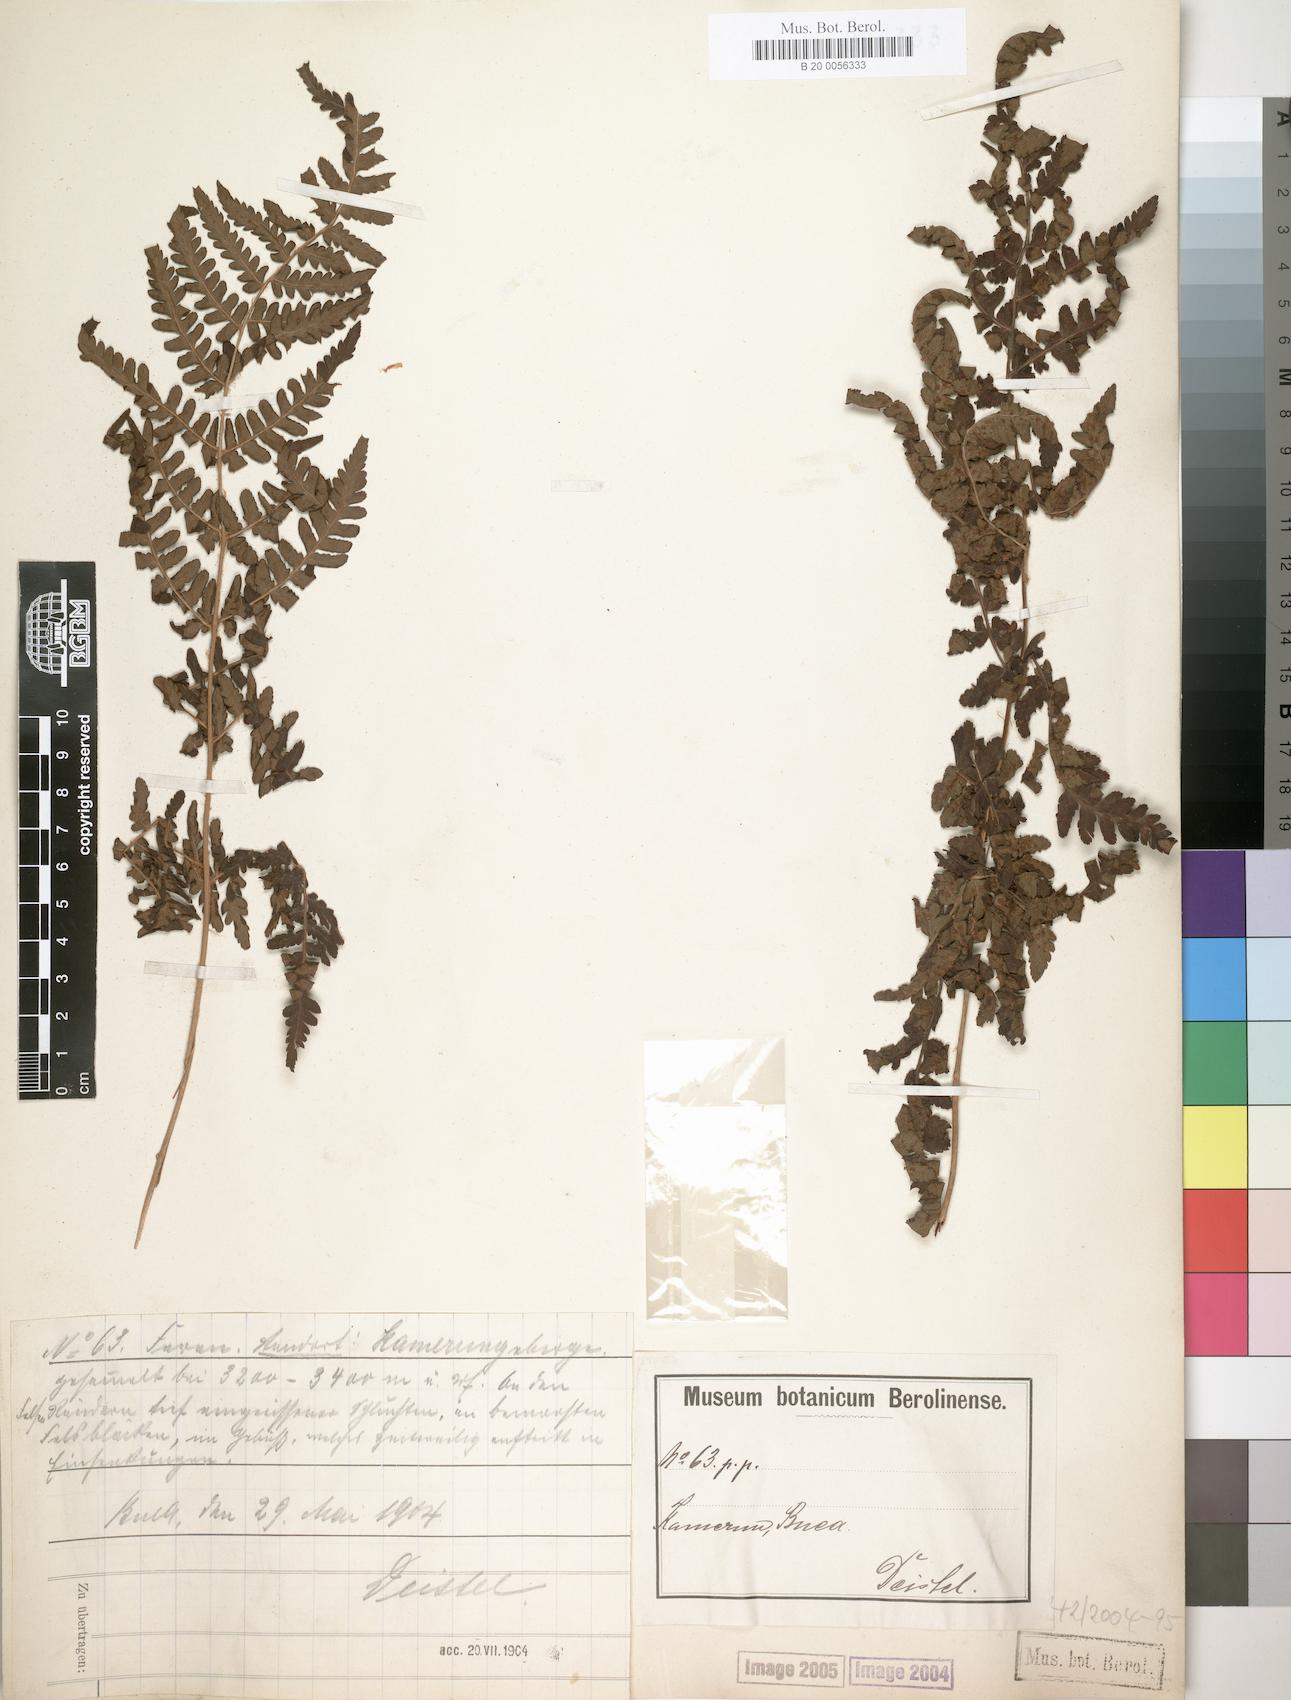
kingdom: Plantae
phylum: Tracheophyta
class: Polypodiopsida
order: Polypodiales
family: Dryopteridaceae
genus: Dryopteris
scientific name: Dryopteris filix-mas
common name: Male fern
